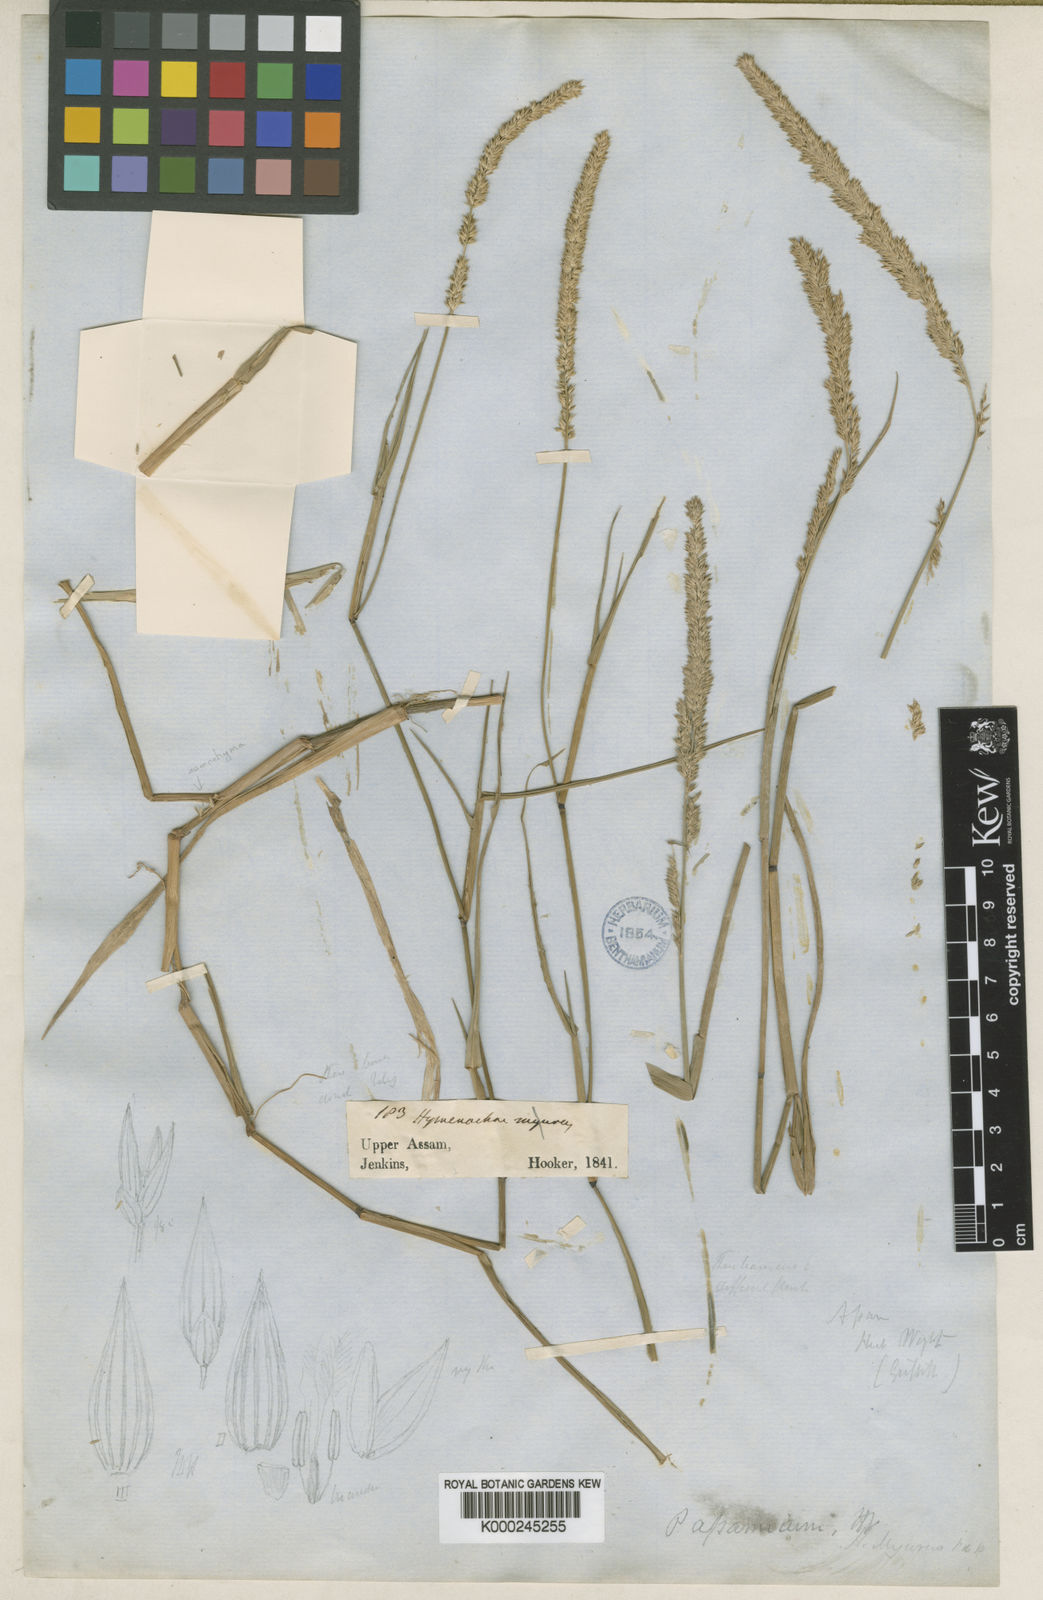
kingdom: Plantae
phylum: Tracheophyta
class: Liliopsida
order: Poales
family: Poaceae
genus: Hymenachne
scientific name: Hymenachne assamica
